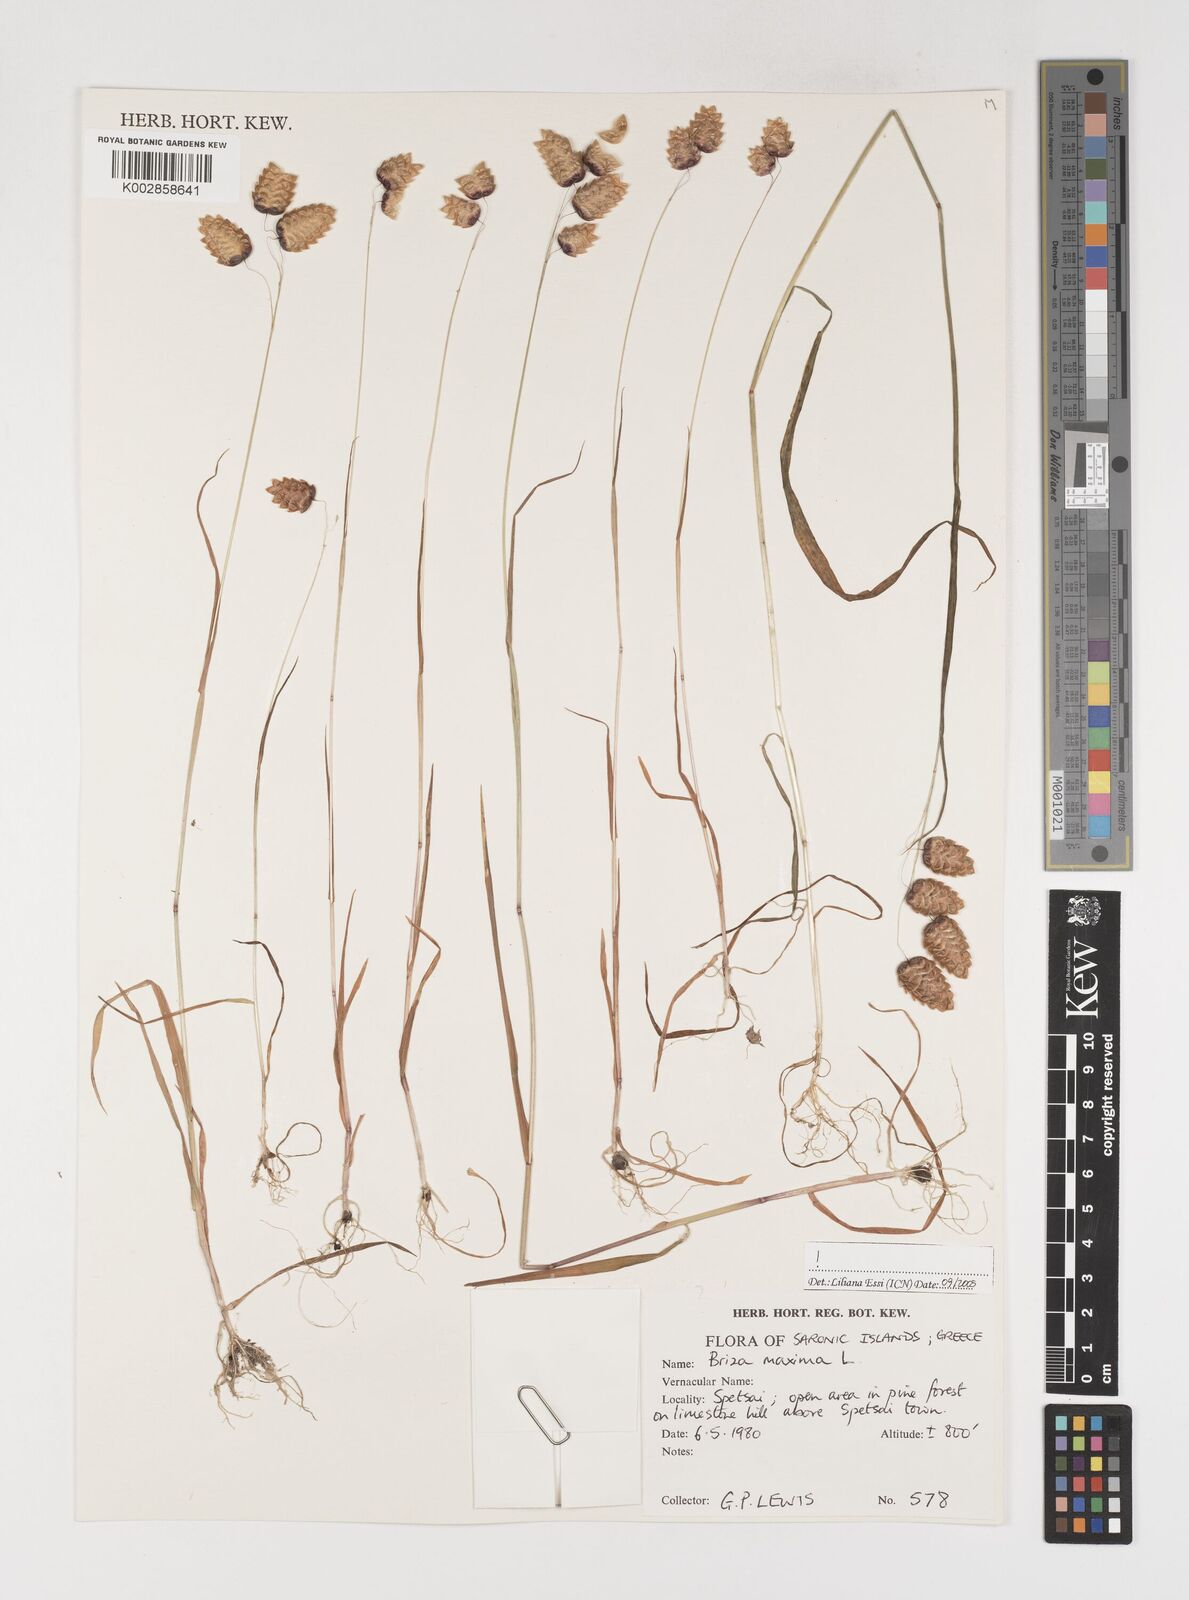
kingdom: Plantae
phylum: Tracheophyta
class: Liliopsida
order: Poales
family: Poaceae
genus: Briza
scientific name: Briza maxima
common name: Big quakinggrass
